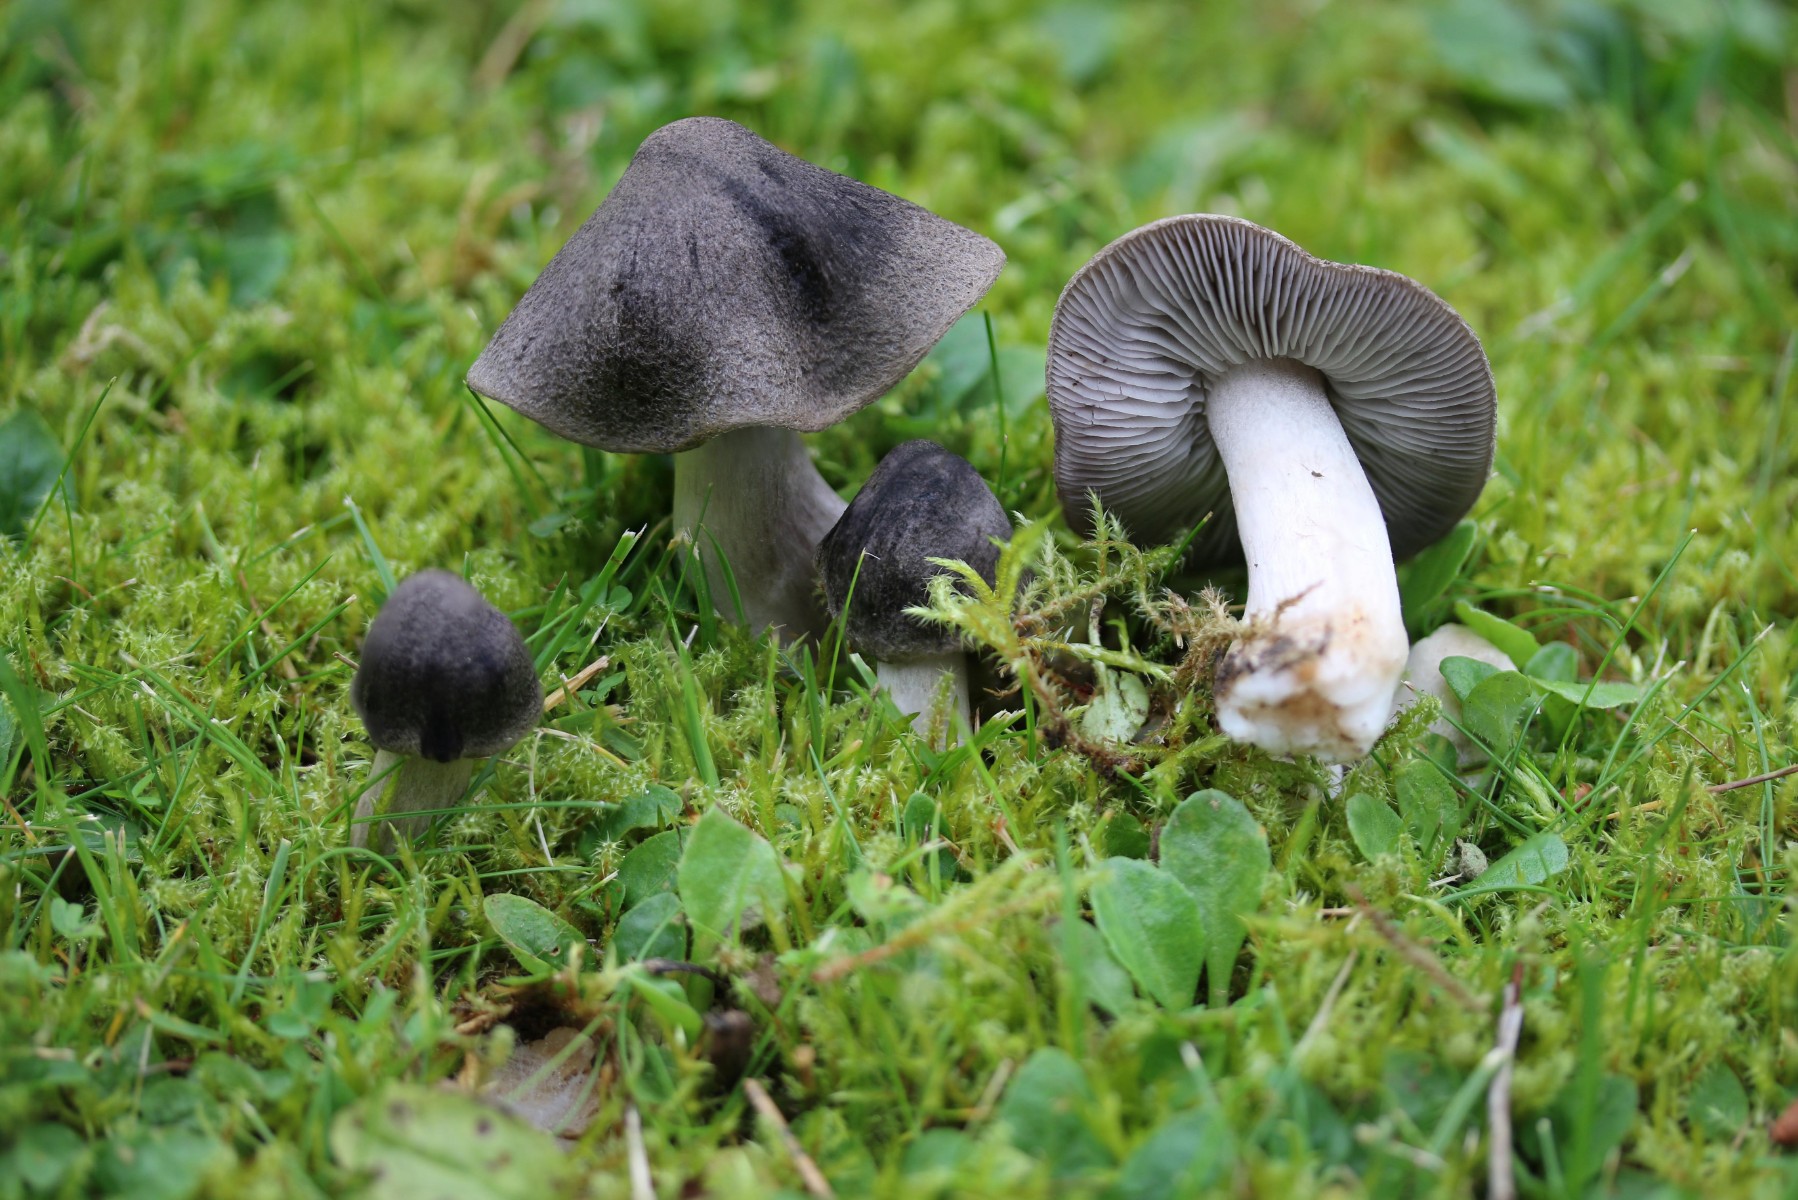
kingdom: Fungi
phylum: Basidiomycota
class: Agaricomycetes
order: Agaricales
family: Tricholomataceae
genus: Tricholoma
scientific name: Tricholoma terreum
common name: jordfarvet ridderhat
